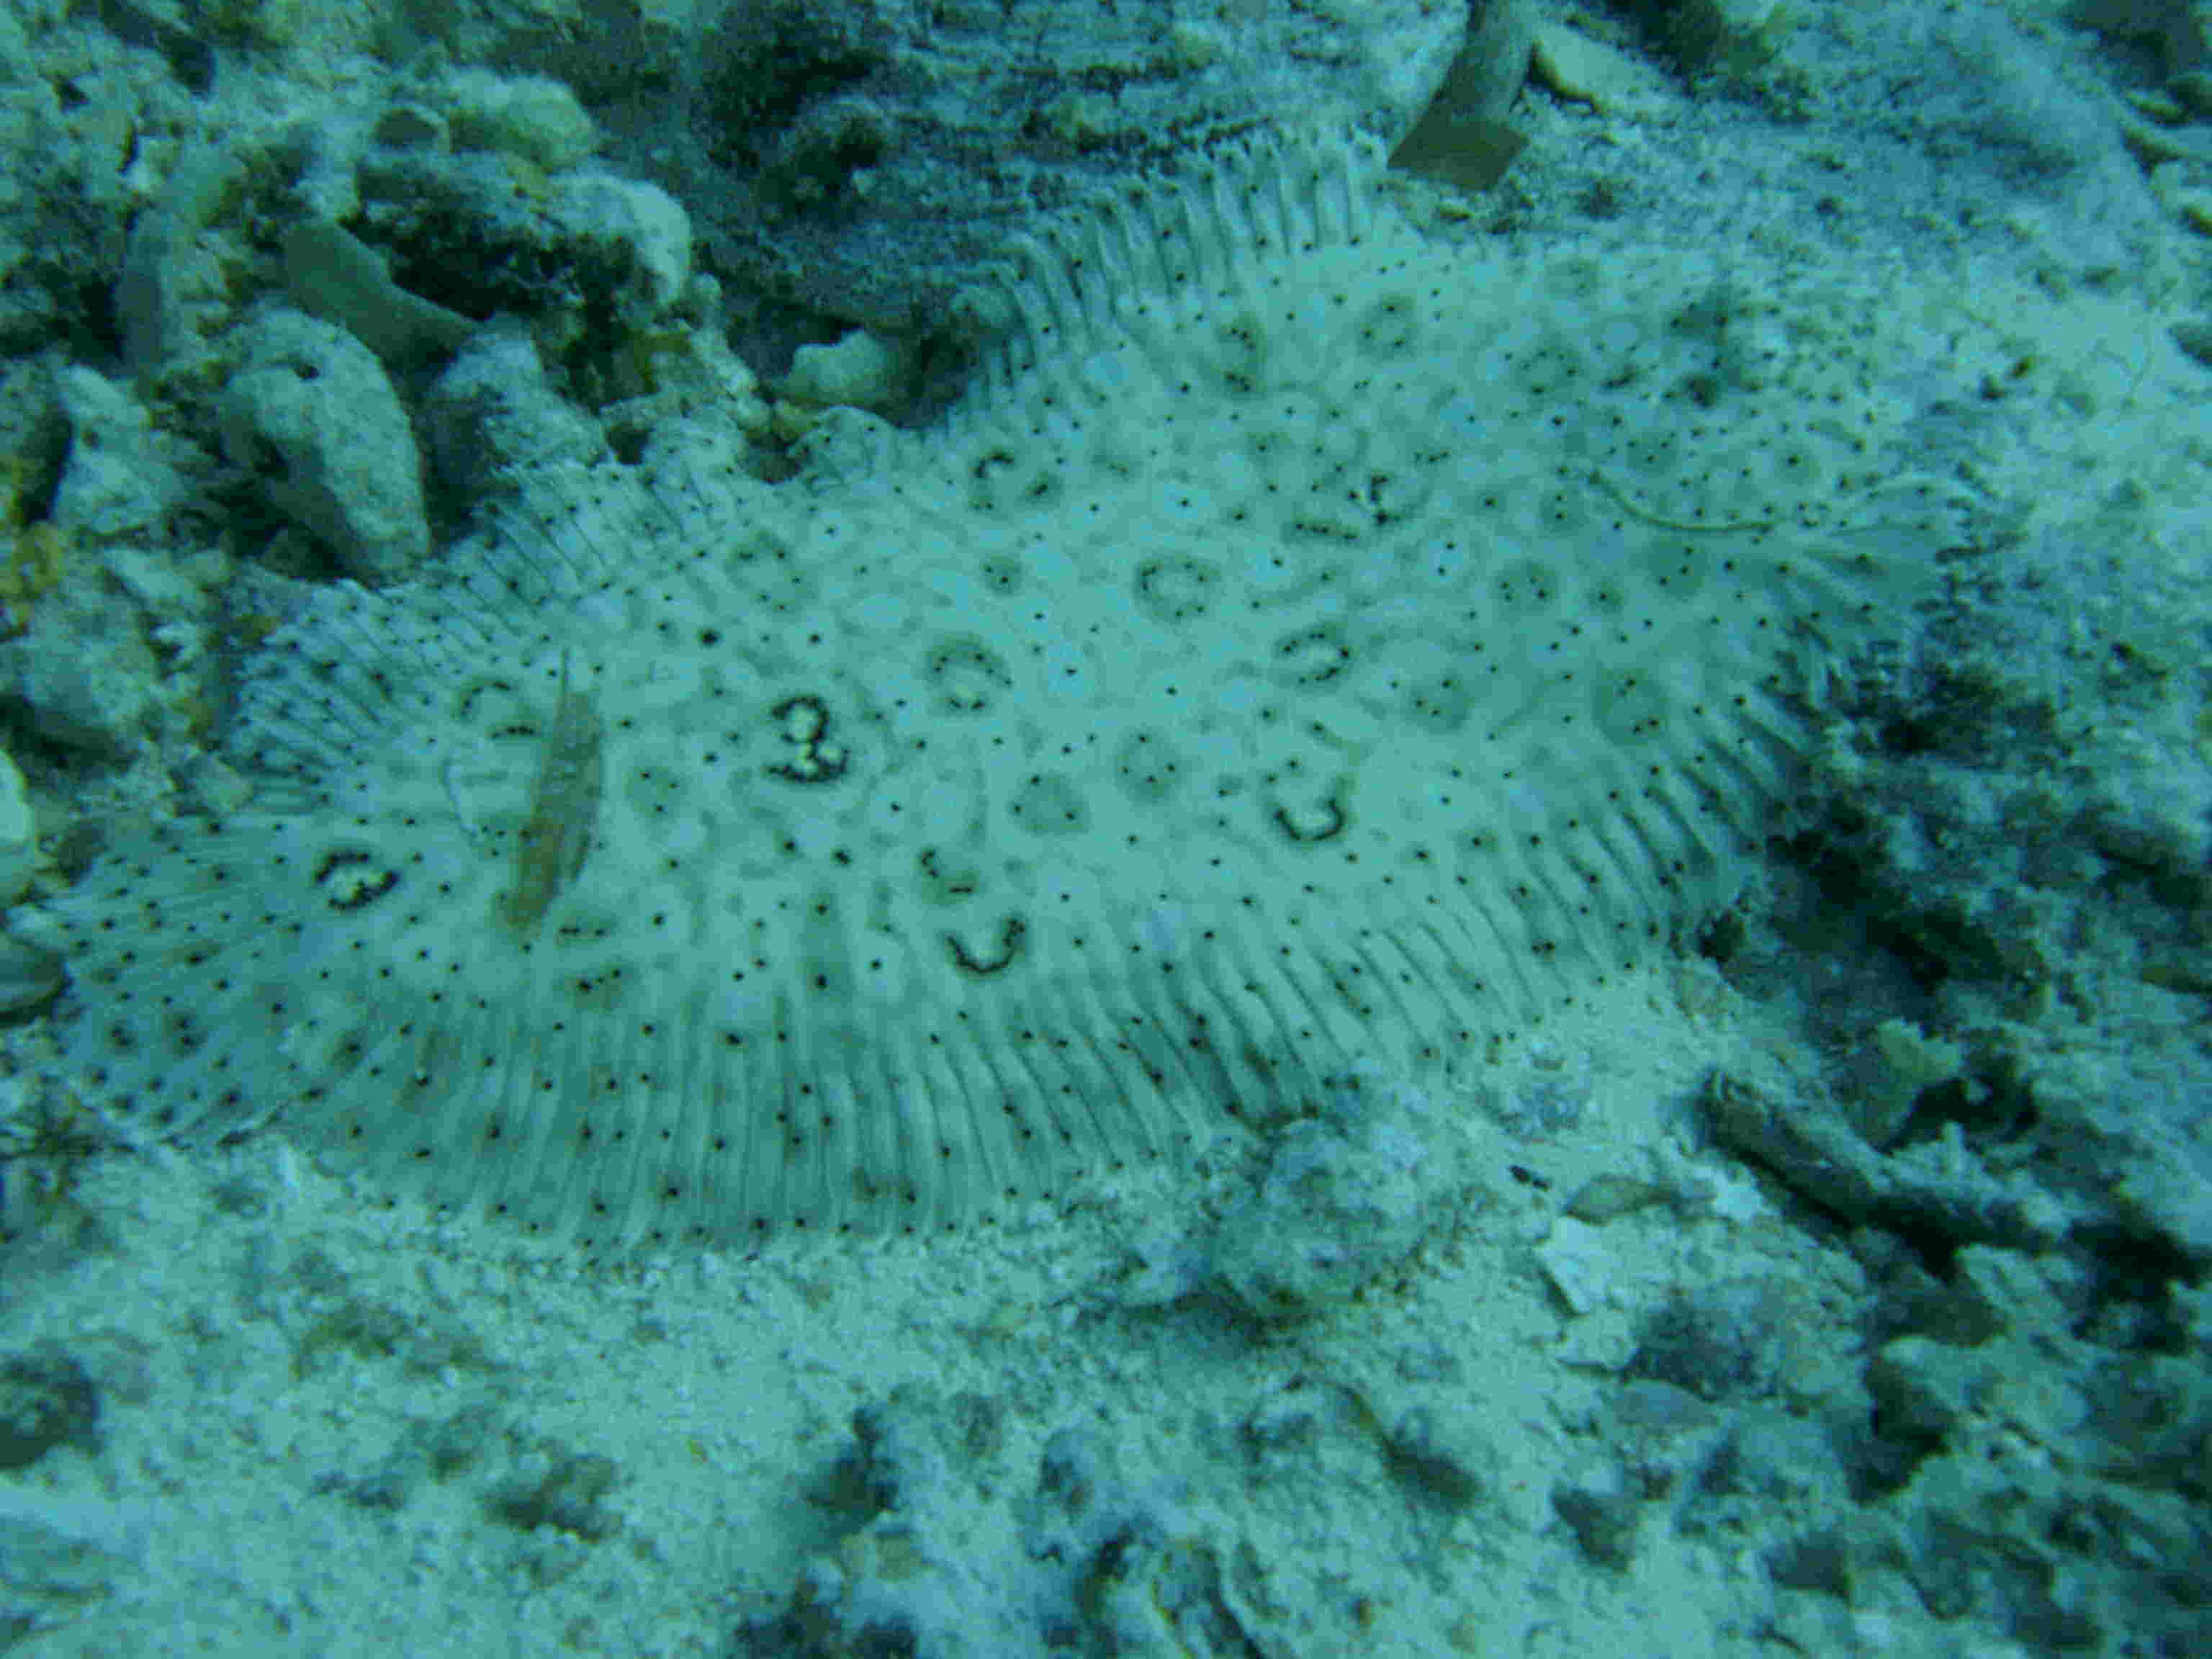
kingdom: Animalia
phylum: Chordata
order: Pleuronectiformes
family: Soleidae
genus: Pardachirus
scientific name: Pardachirus marmoratus
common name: Finless sole
